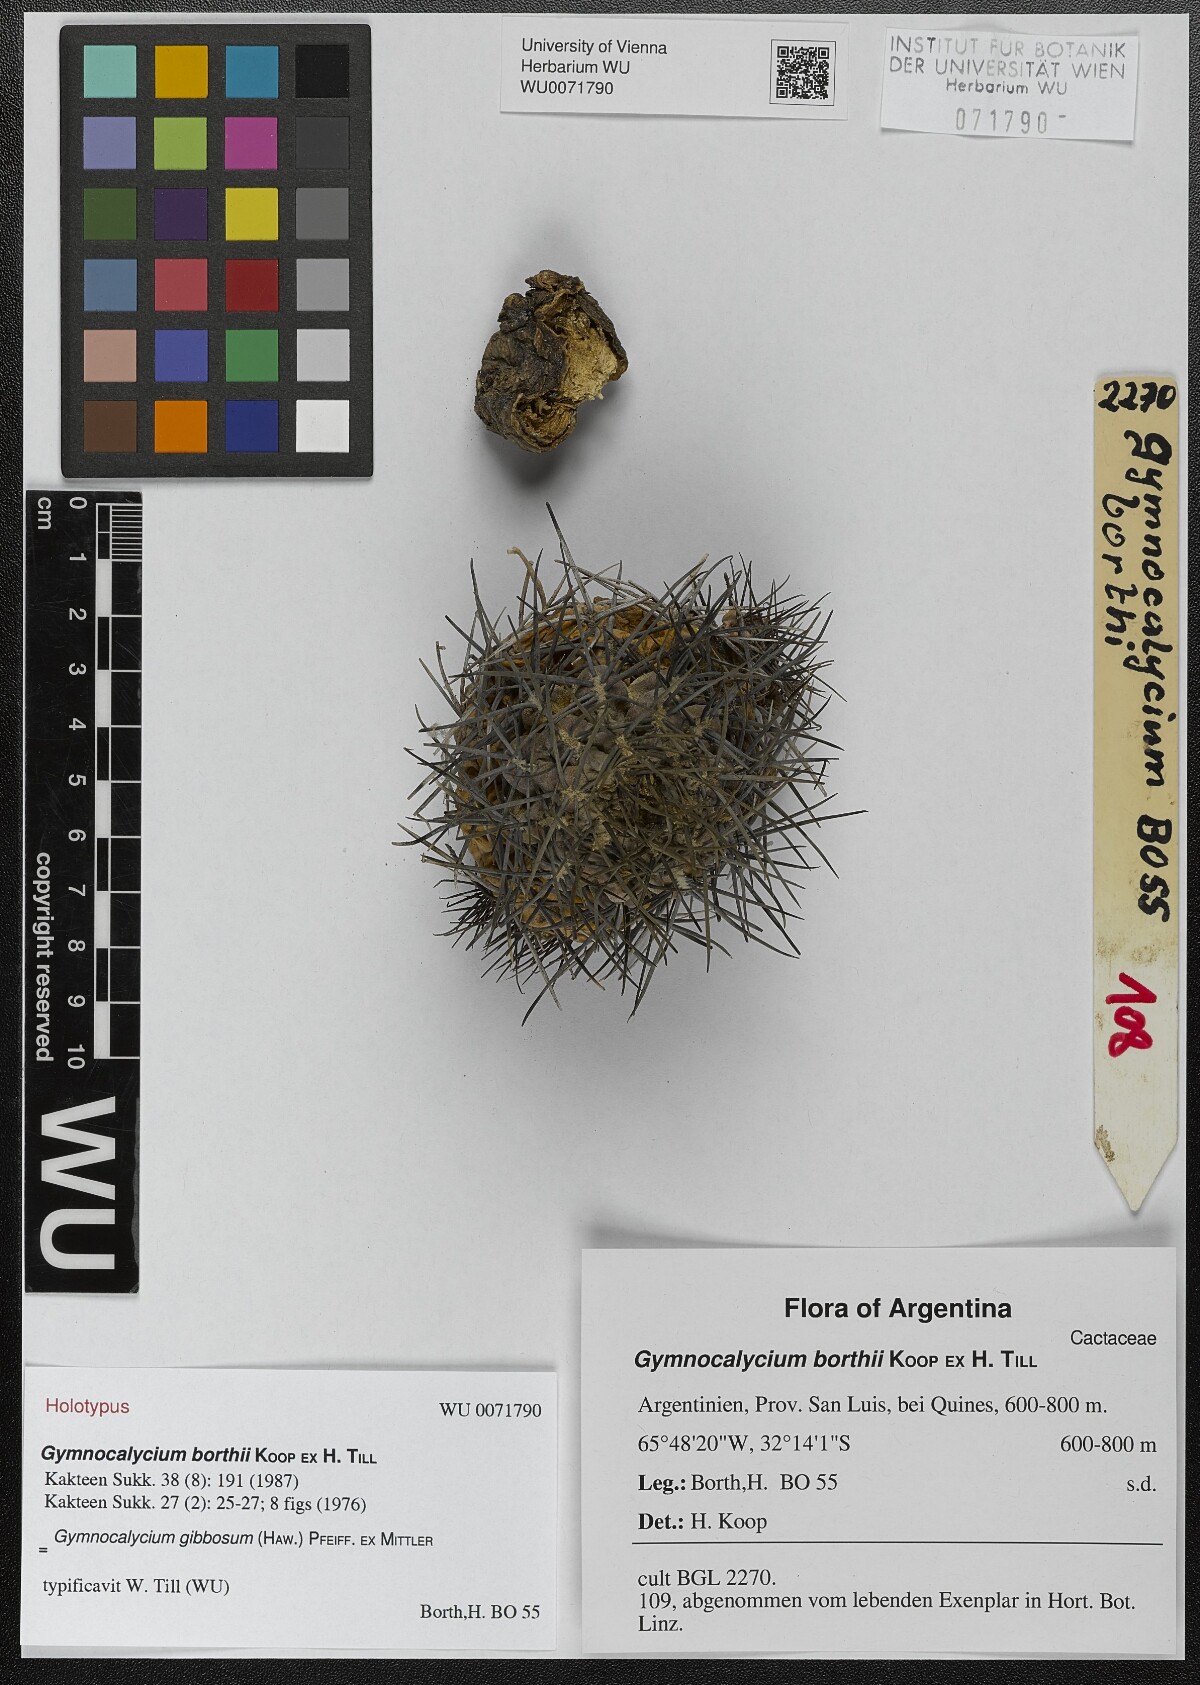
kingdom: Plantae
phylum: Tracheophyta
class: Magnoliopsida
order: Caryophyllales
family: Cactaceae
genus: Gymnocalycium
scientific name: Gymnocalycium gibbosum
